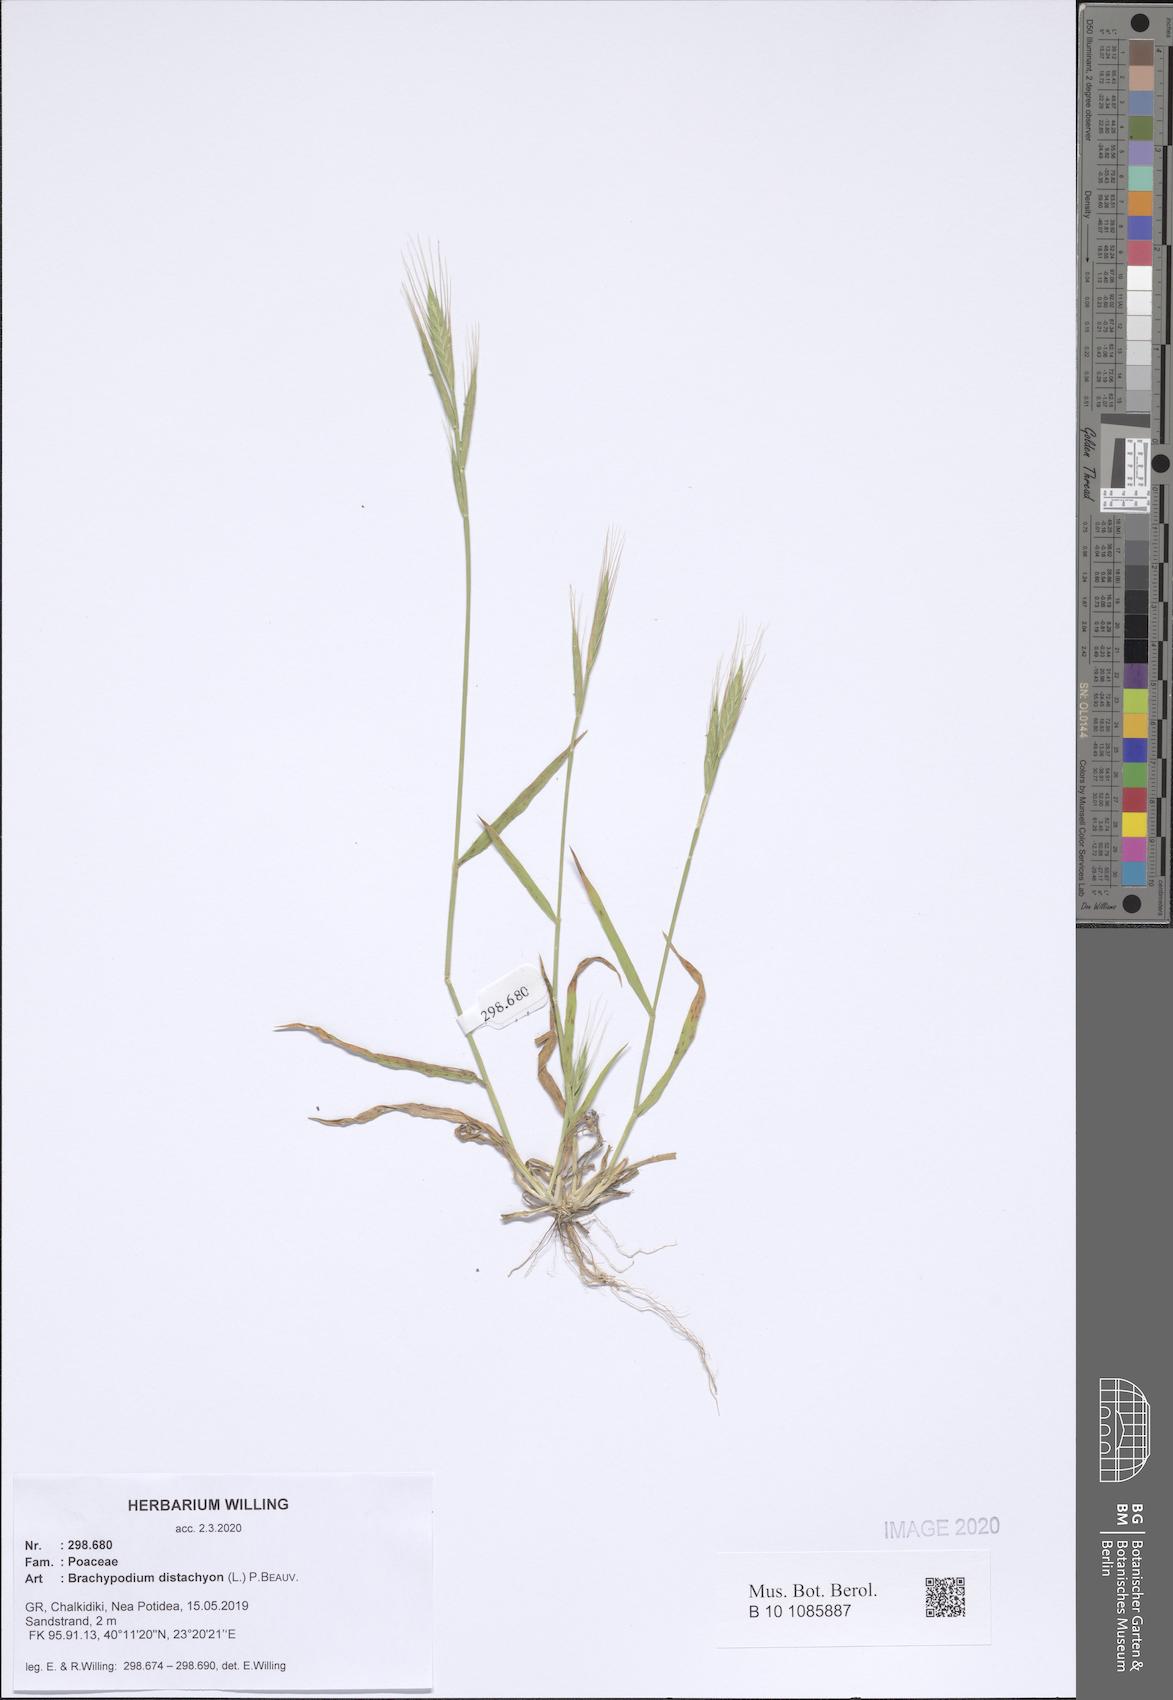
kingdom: Plantae
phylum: Tracheophyta
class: Liliopsida
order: Poales
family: Poaceae
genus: Brachypodium
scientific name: Brachypodium distachyon
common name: Stiff brome
